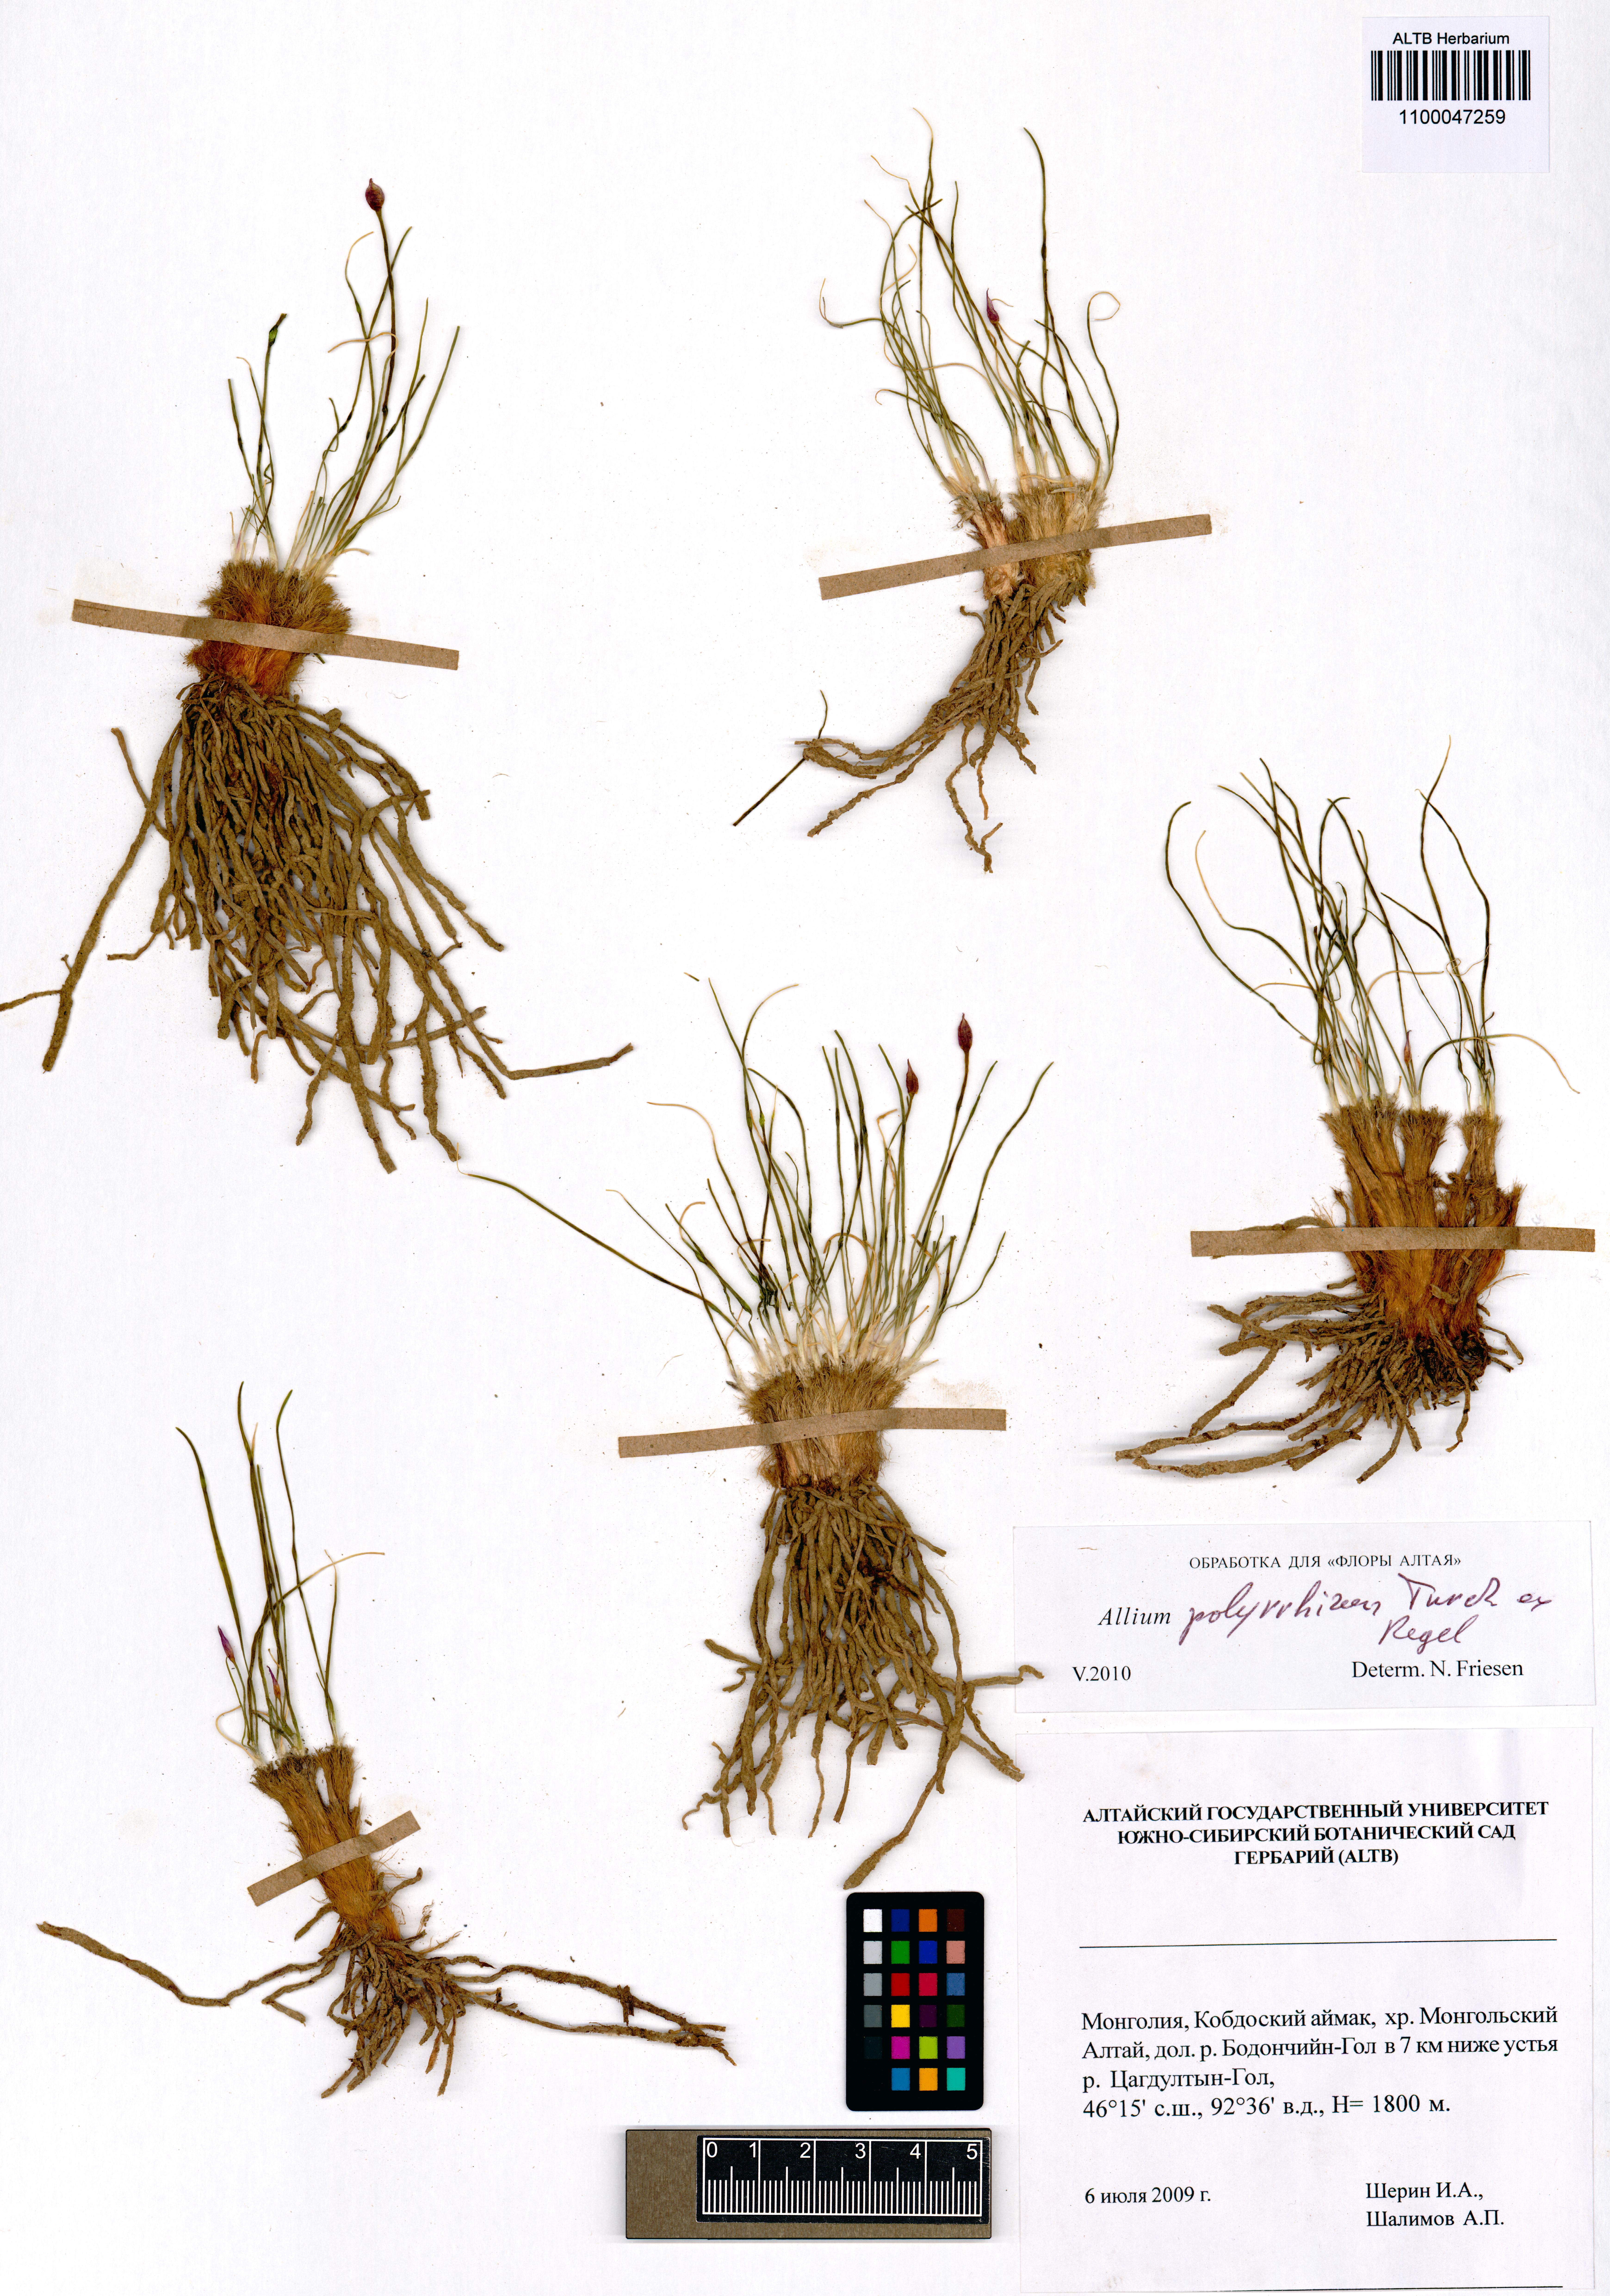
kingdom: Plantae
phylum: Tracheophyta
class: Liliopsida
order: Asparagales
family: Amaryllidaceae
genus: Allium
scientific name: Allium polyrhizum
